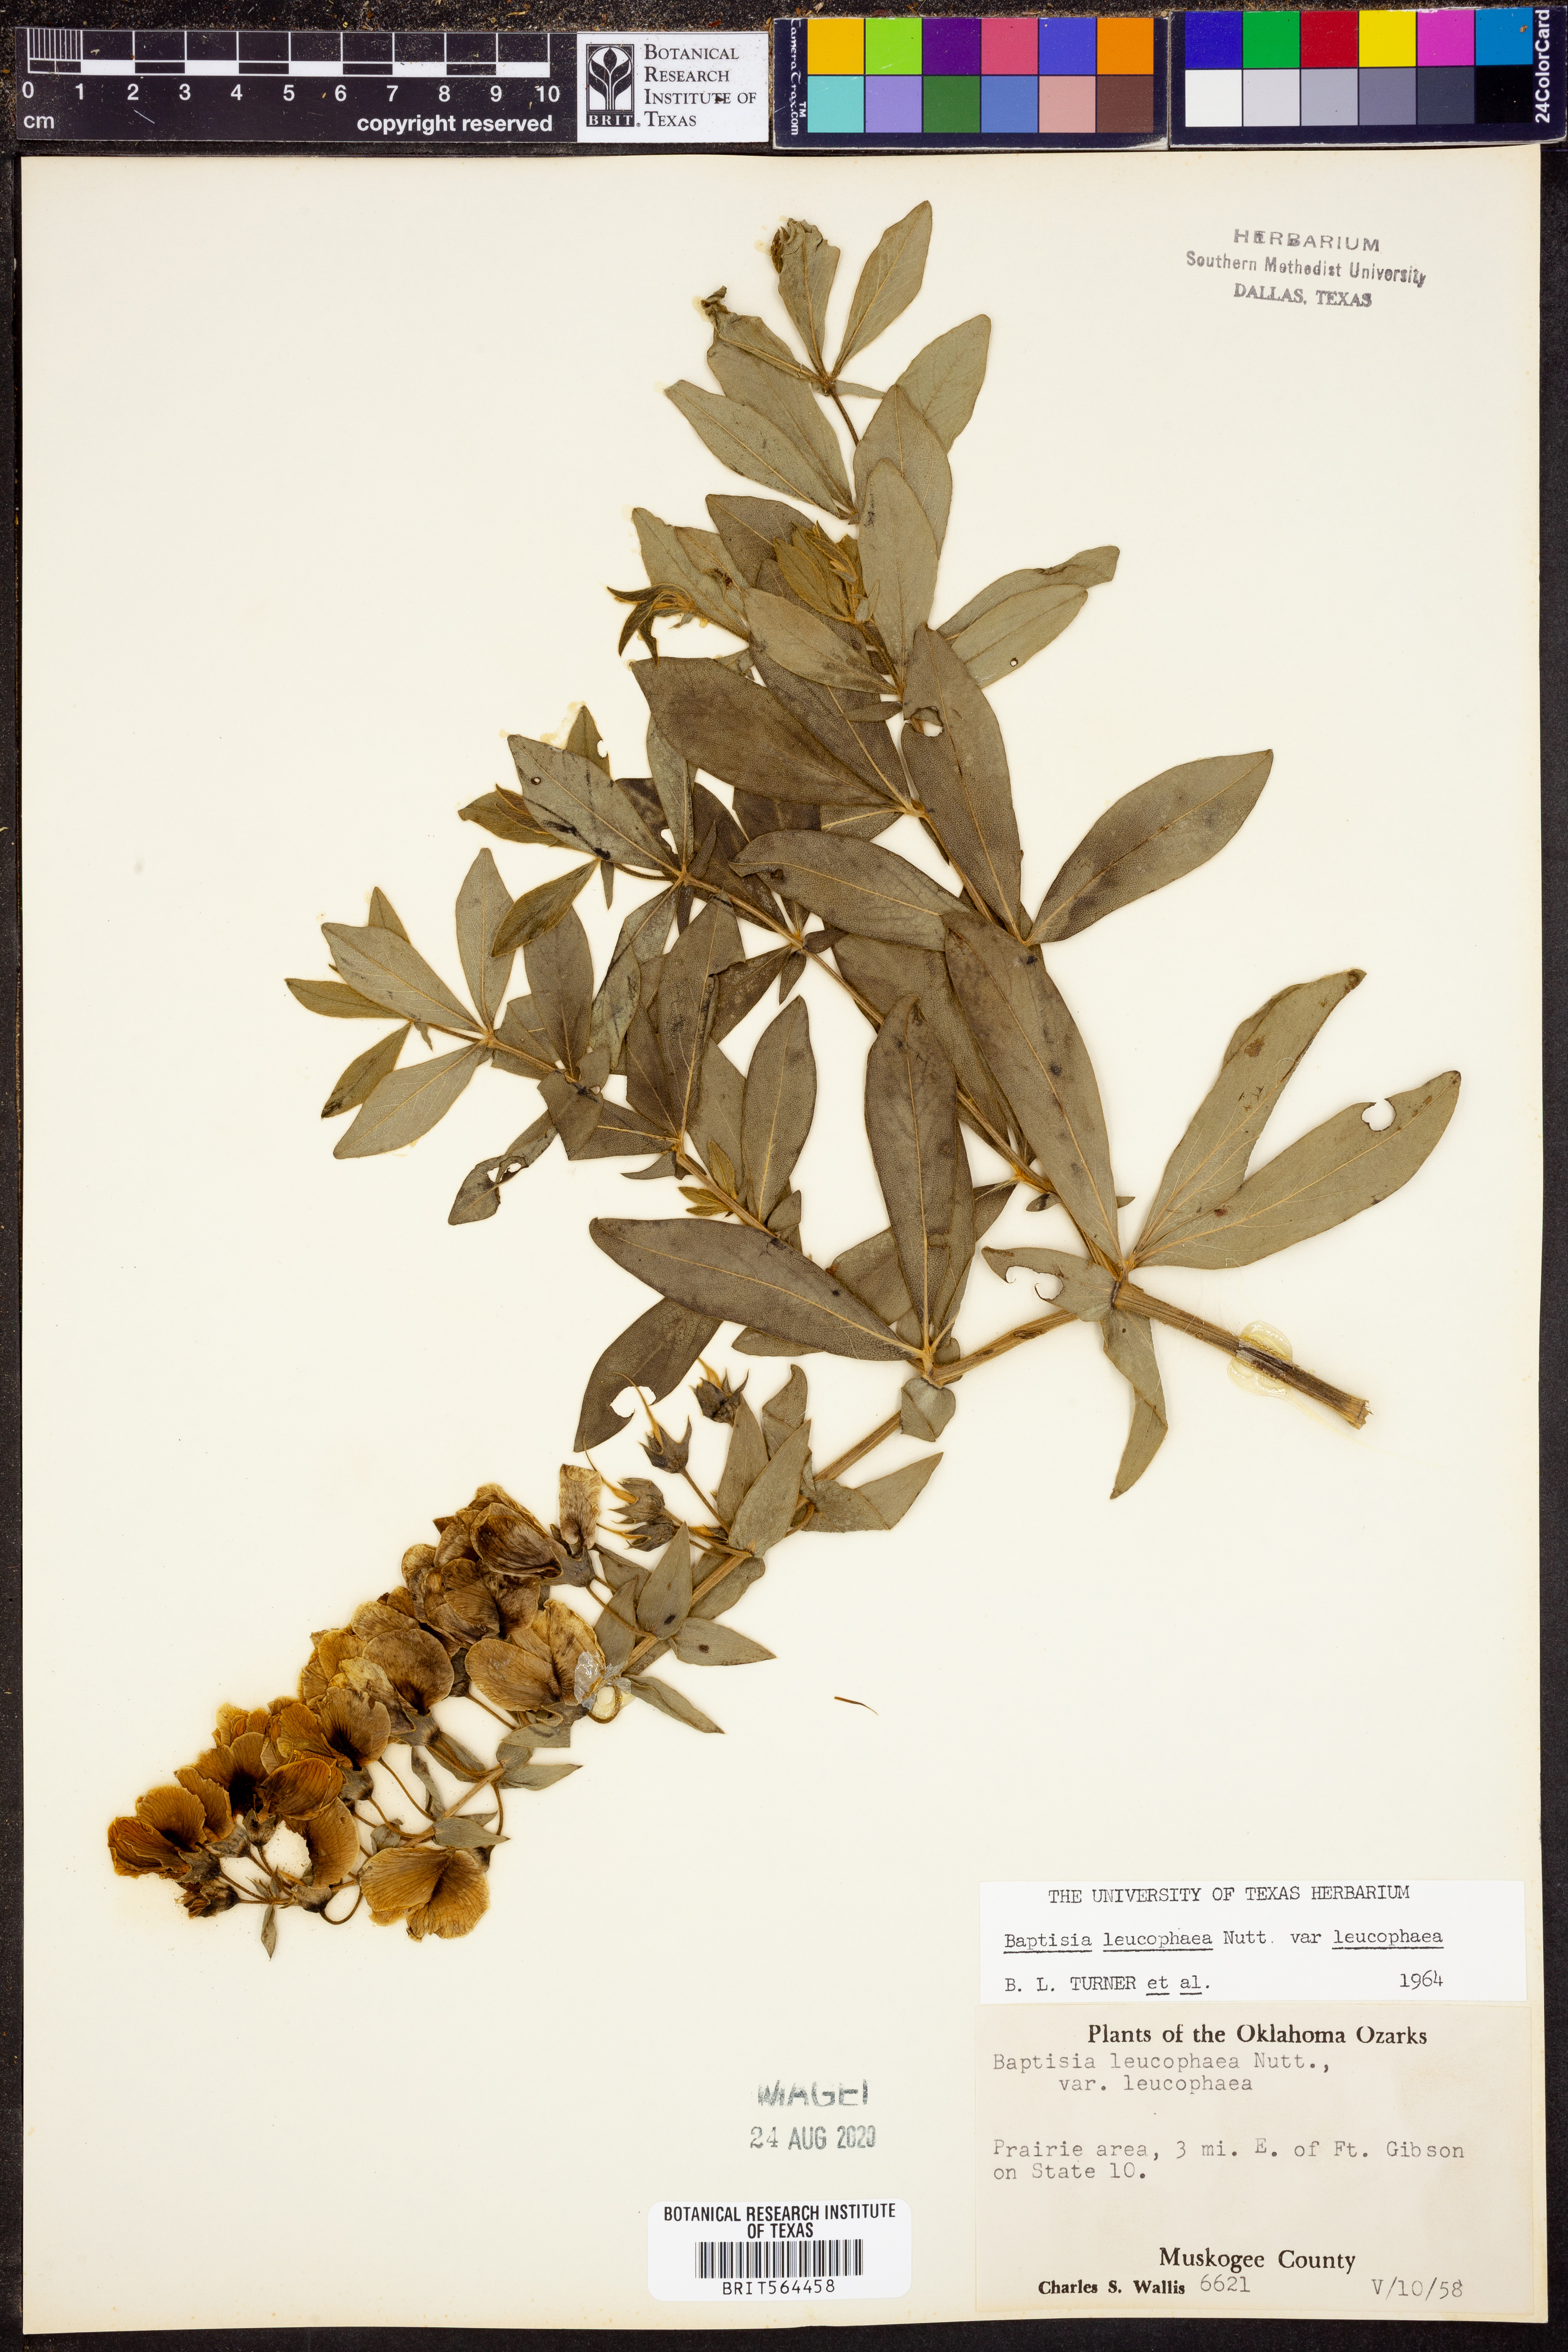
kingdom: Plantae
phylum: Tracheophyta
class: Magnoliopsida
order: Fabales
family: Fabaceae
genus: Baptisia
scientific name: Baptisia bracteata
